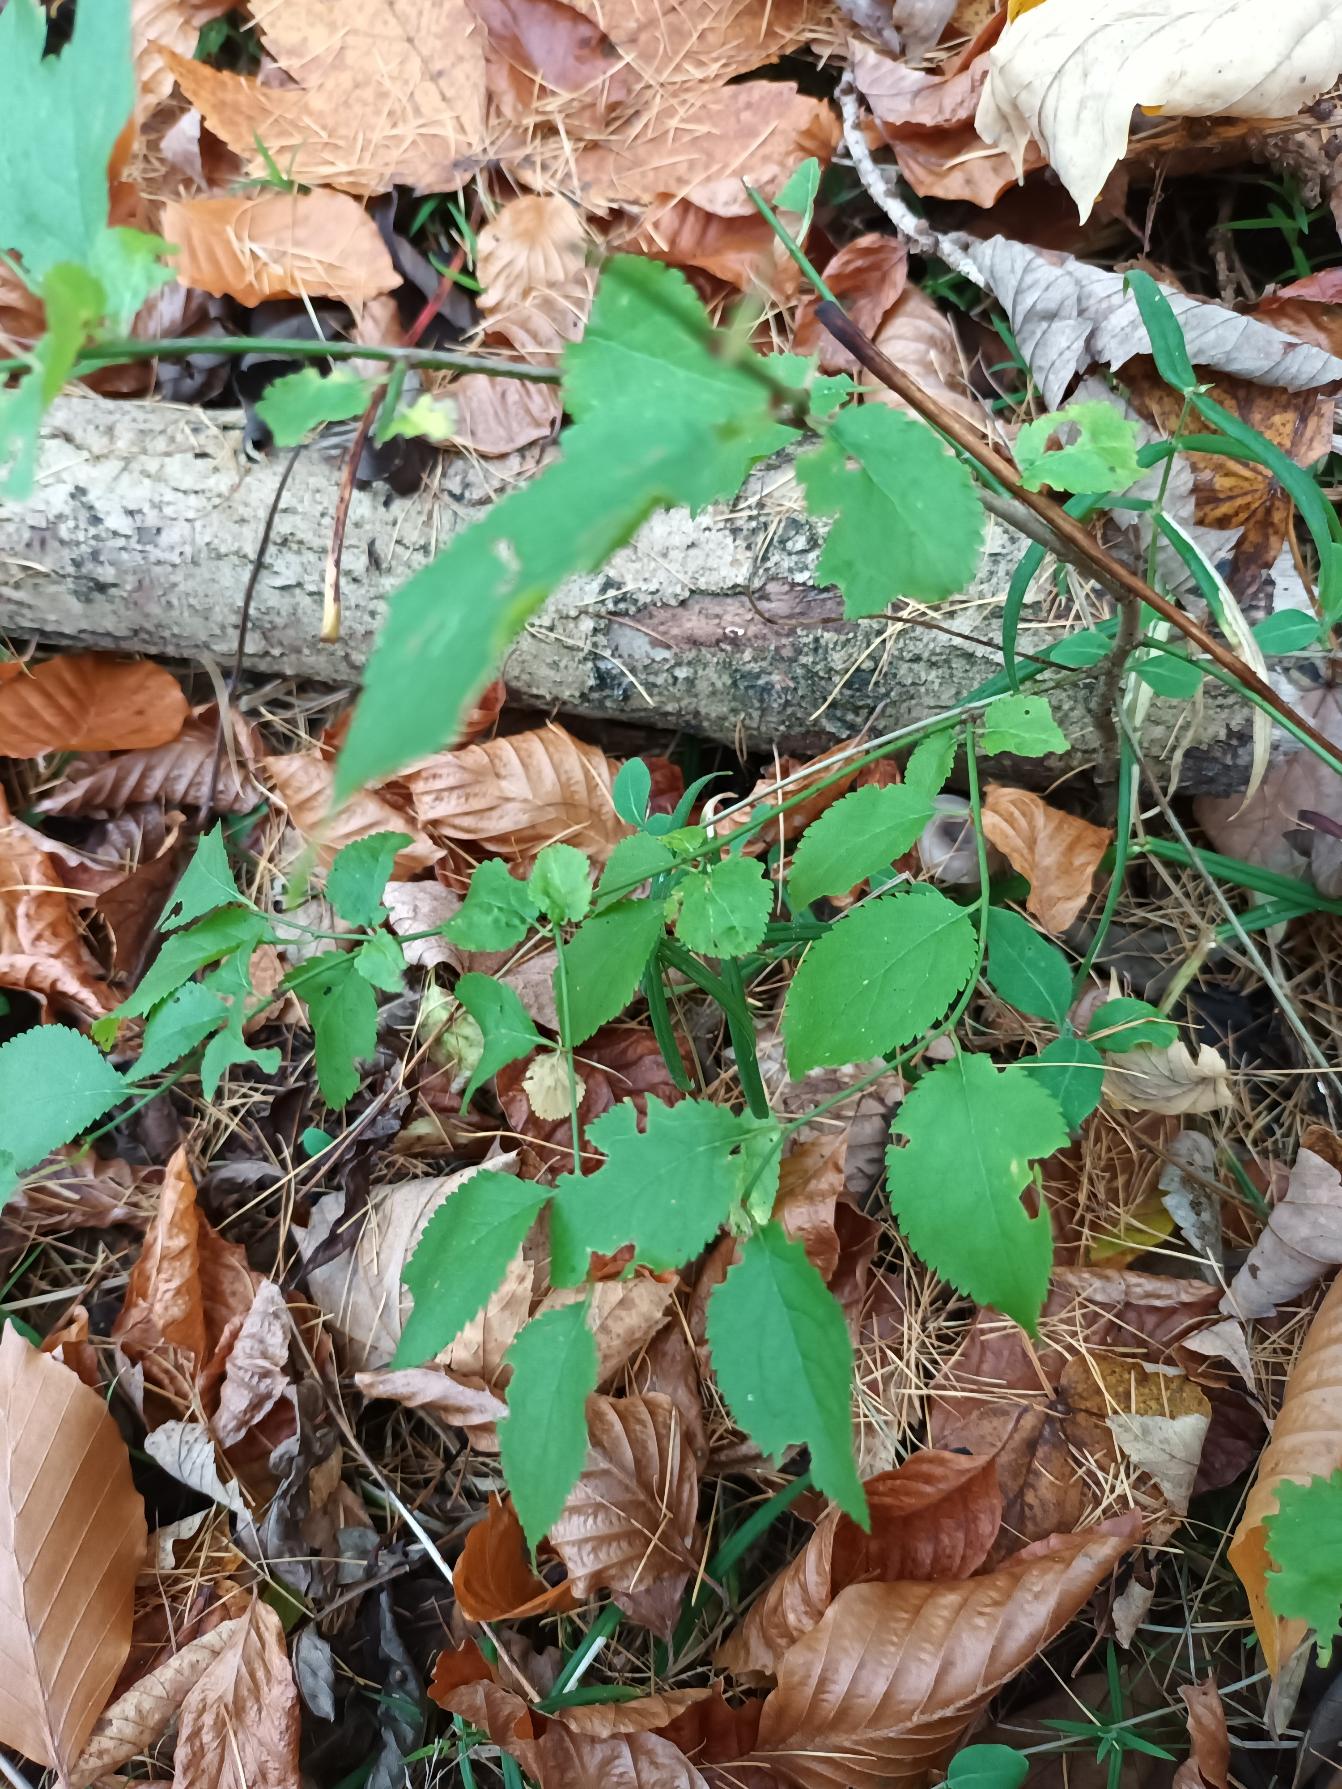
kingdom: Plantae
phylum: Tracheophyta
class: Magnoliopsida
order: Lamiales
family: Plantaginaceae
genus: Veronica
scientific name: Veronica montana
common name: Bjerg-ærenpris
